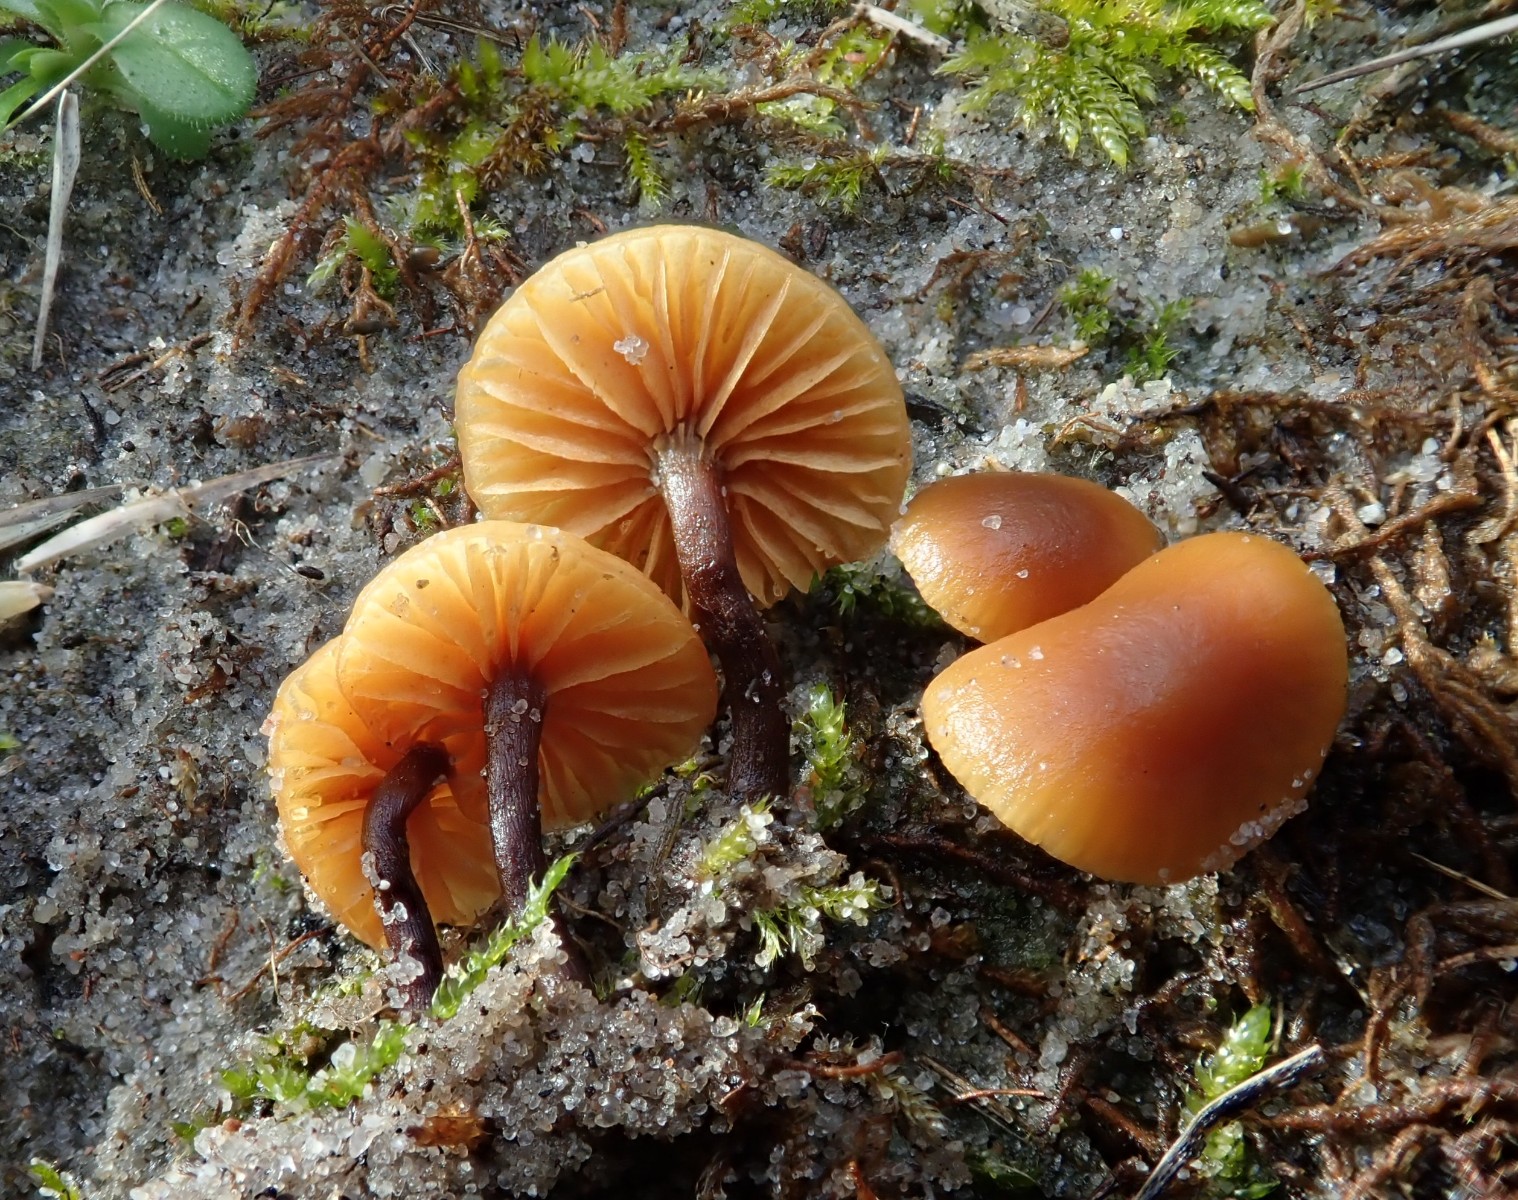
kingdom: Fungi
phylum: Basidiomycota
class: Agaricomycetes
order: Agaricales
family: Hymenogastraceae
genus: Galerina
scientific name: Galerina esteve-raventosii
